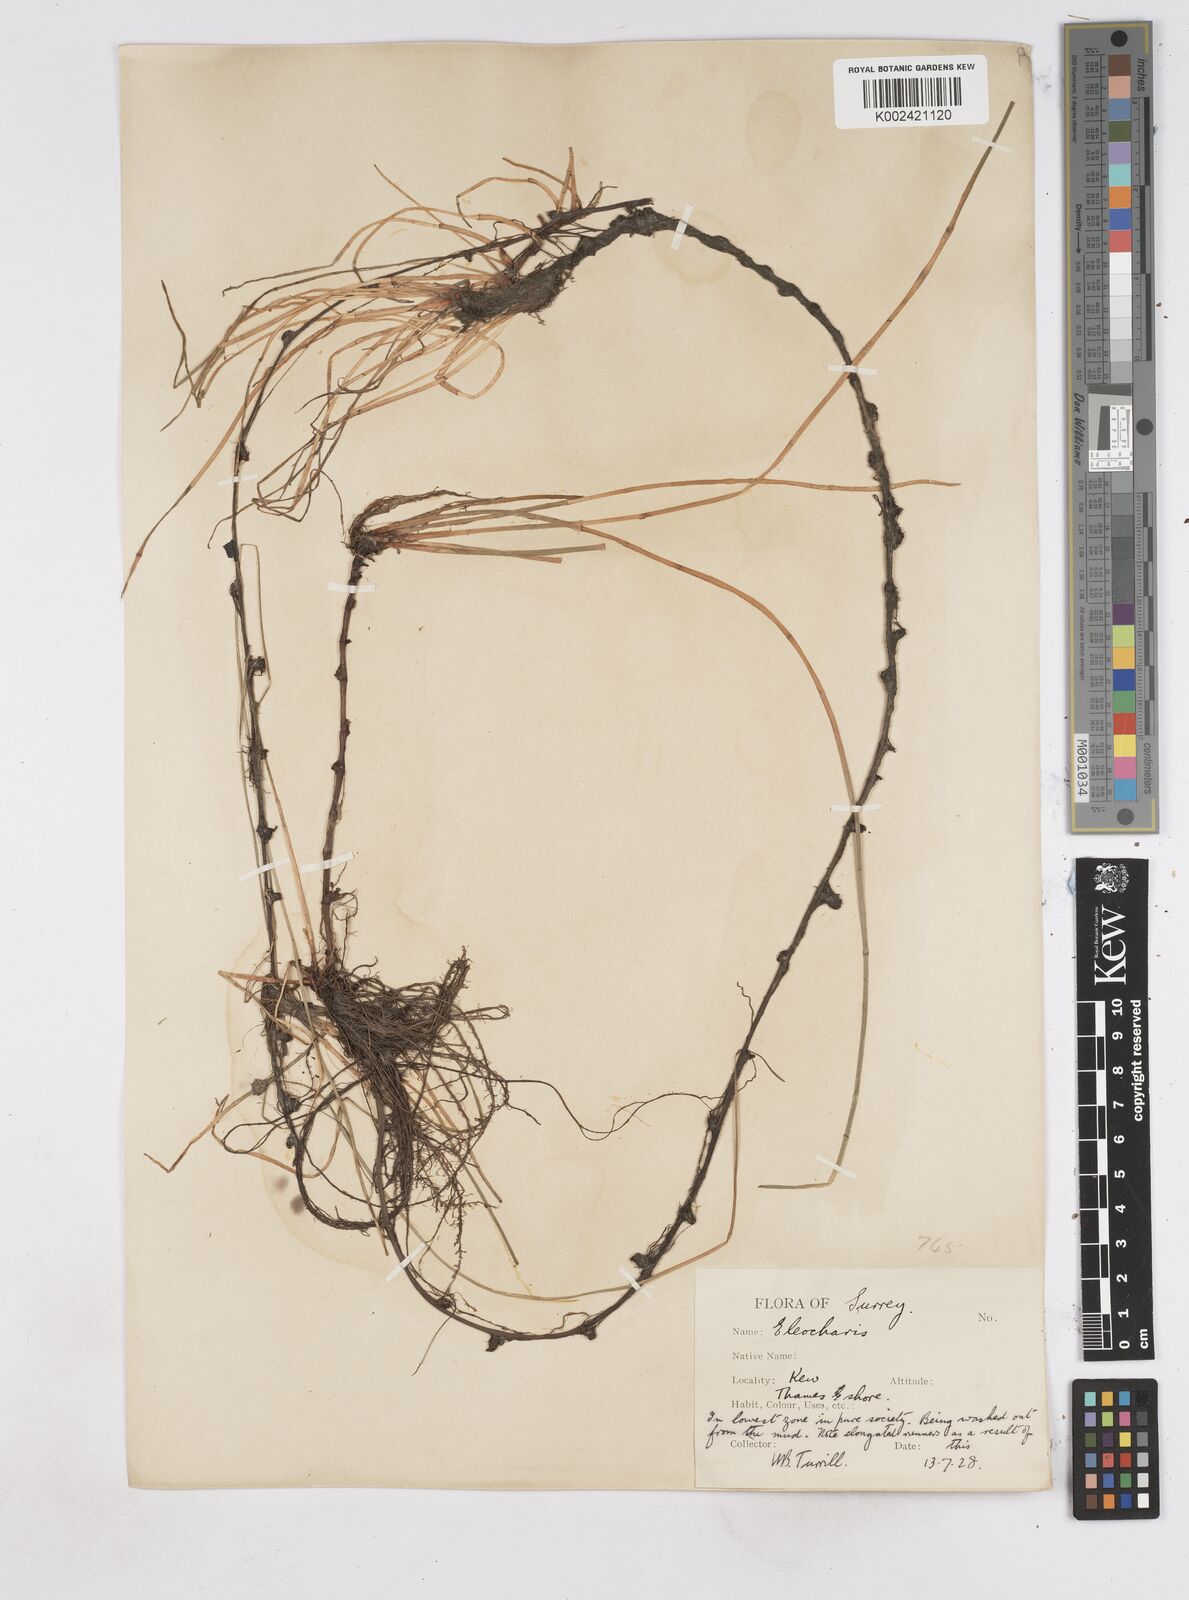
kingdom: Plantae
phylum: Tracheophyta
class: Liliopsida
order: Poales
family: Cyperaceae
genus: Eleocharis
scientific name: Eleocharis palustris
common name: Common spike-rush
